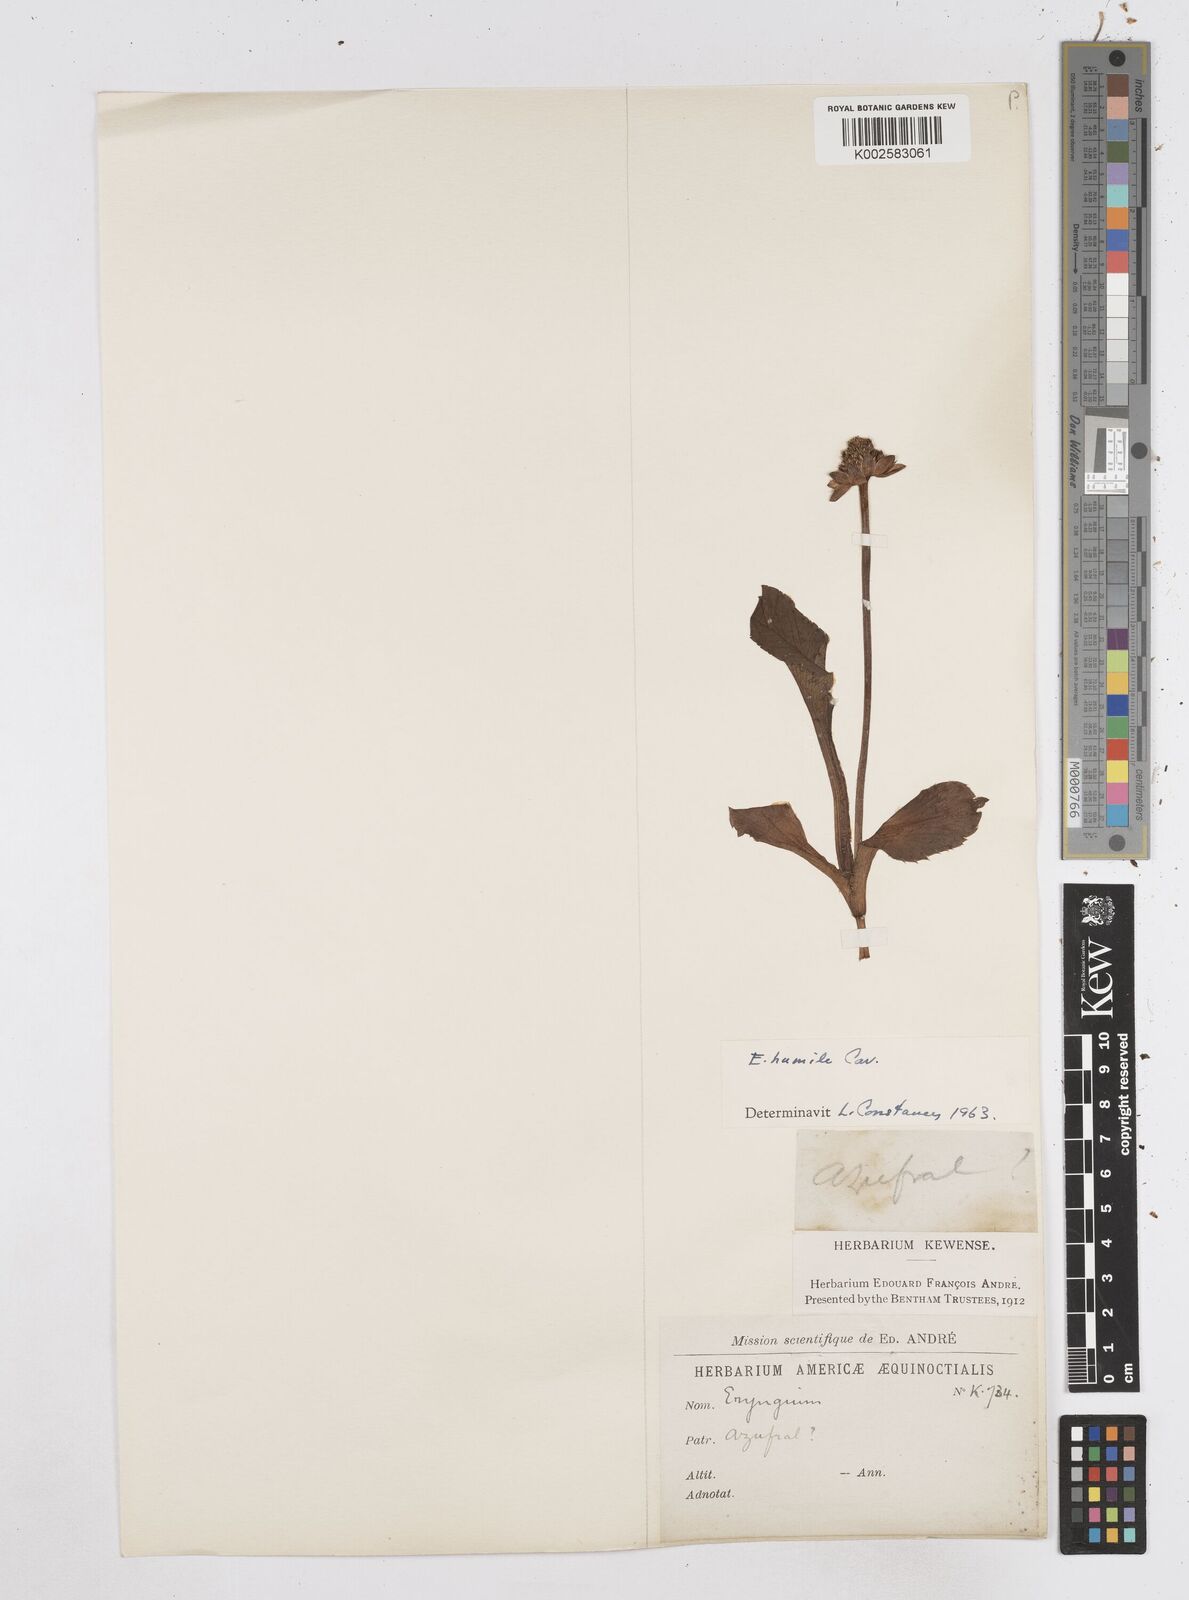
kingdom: Plantae
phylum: Tracheophyta
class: Magnoliopsida
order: Apiales
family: Apiaceae
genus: Eryngium
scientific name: Eryngium humile
